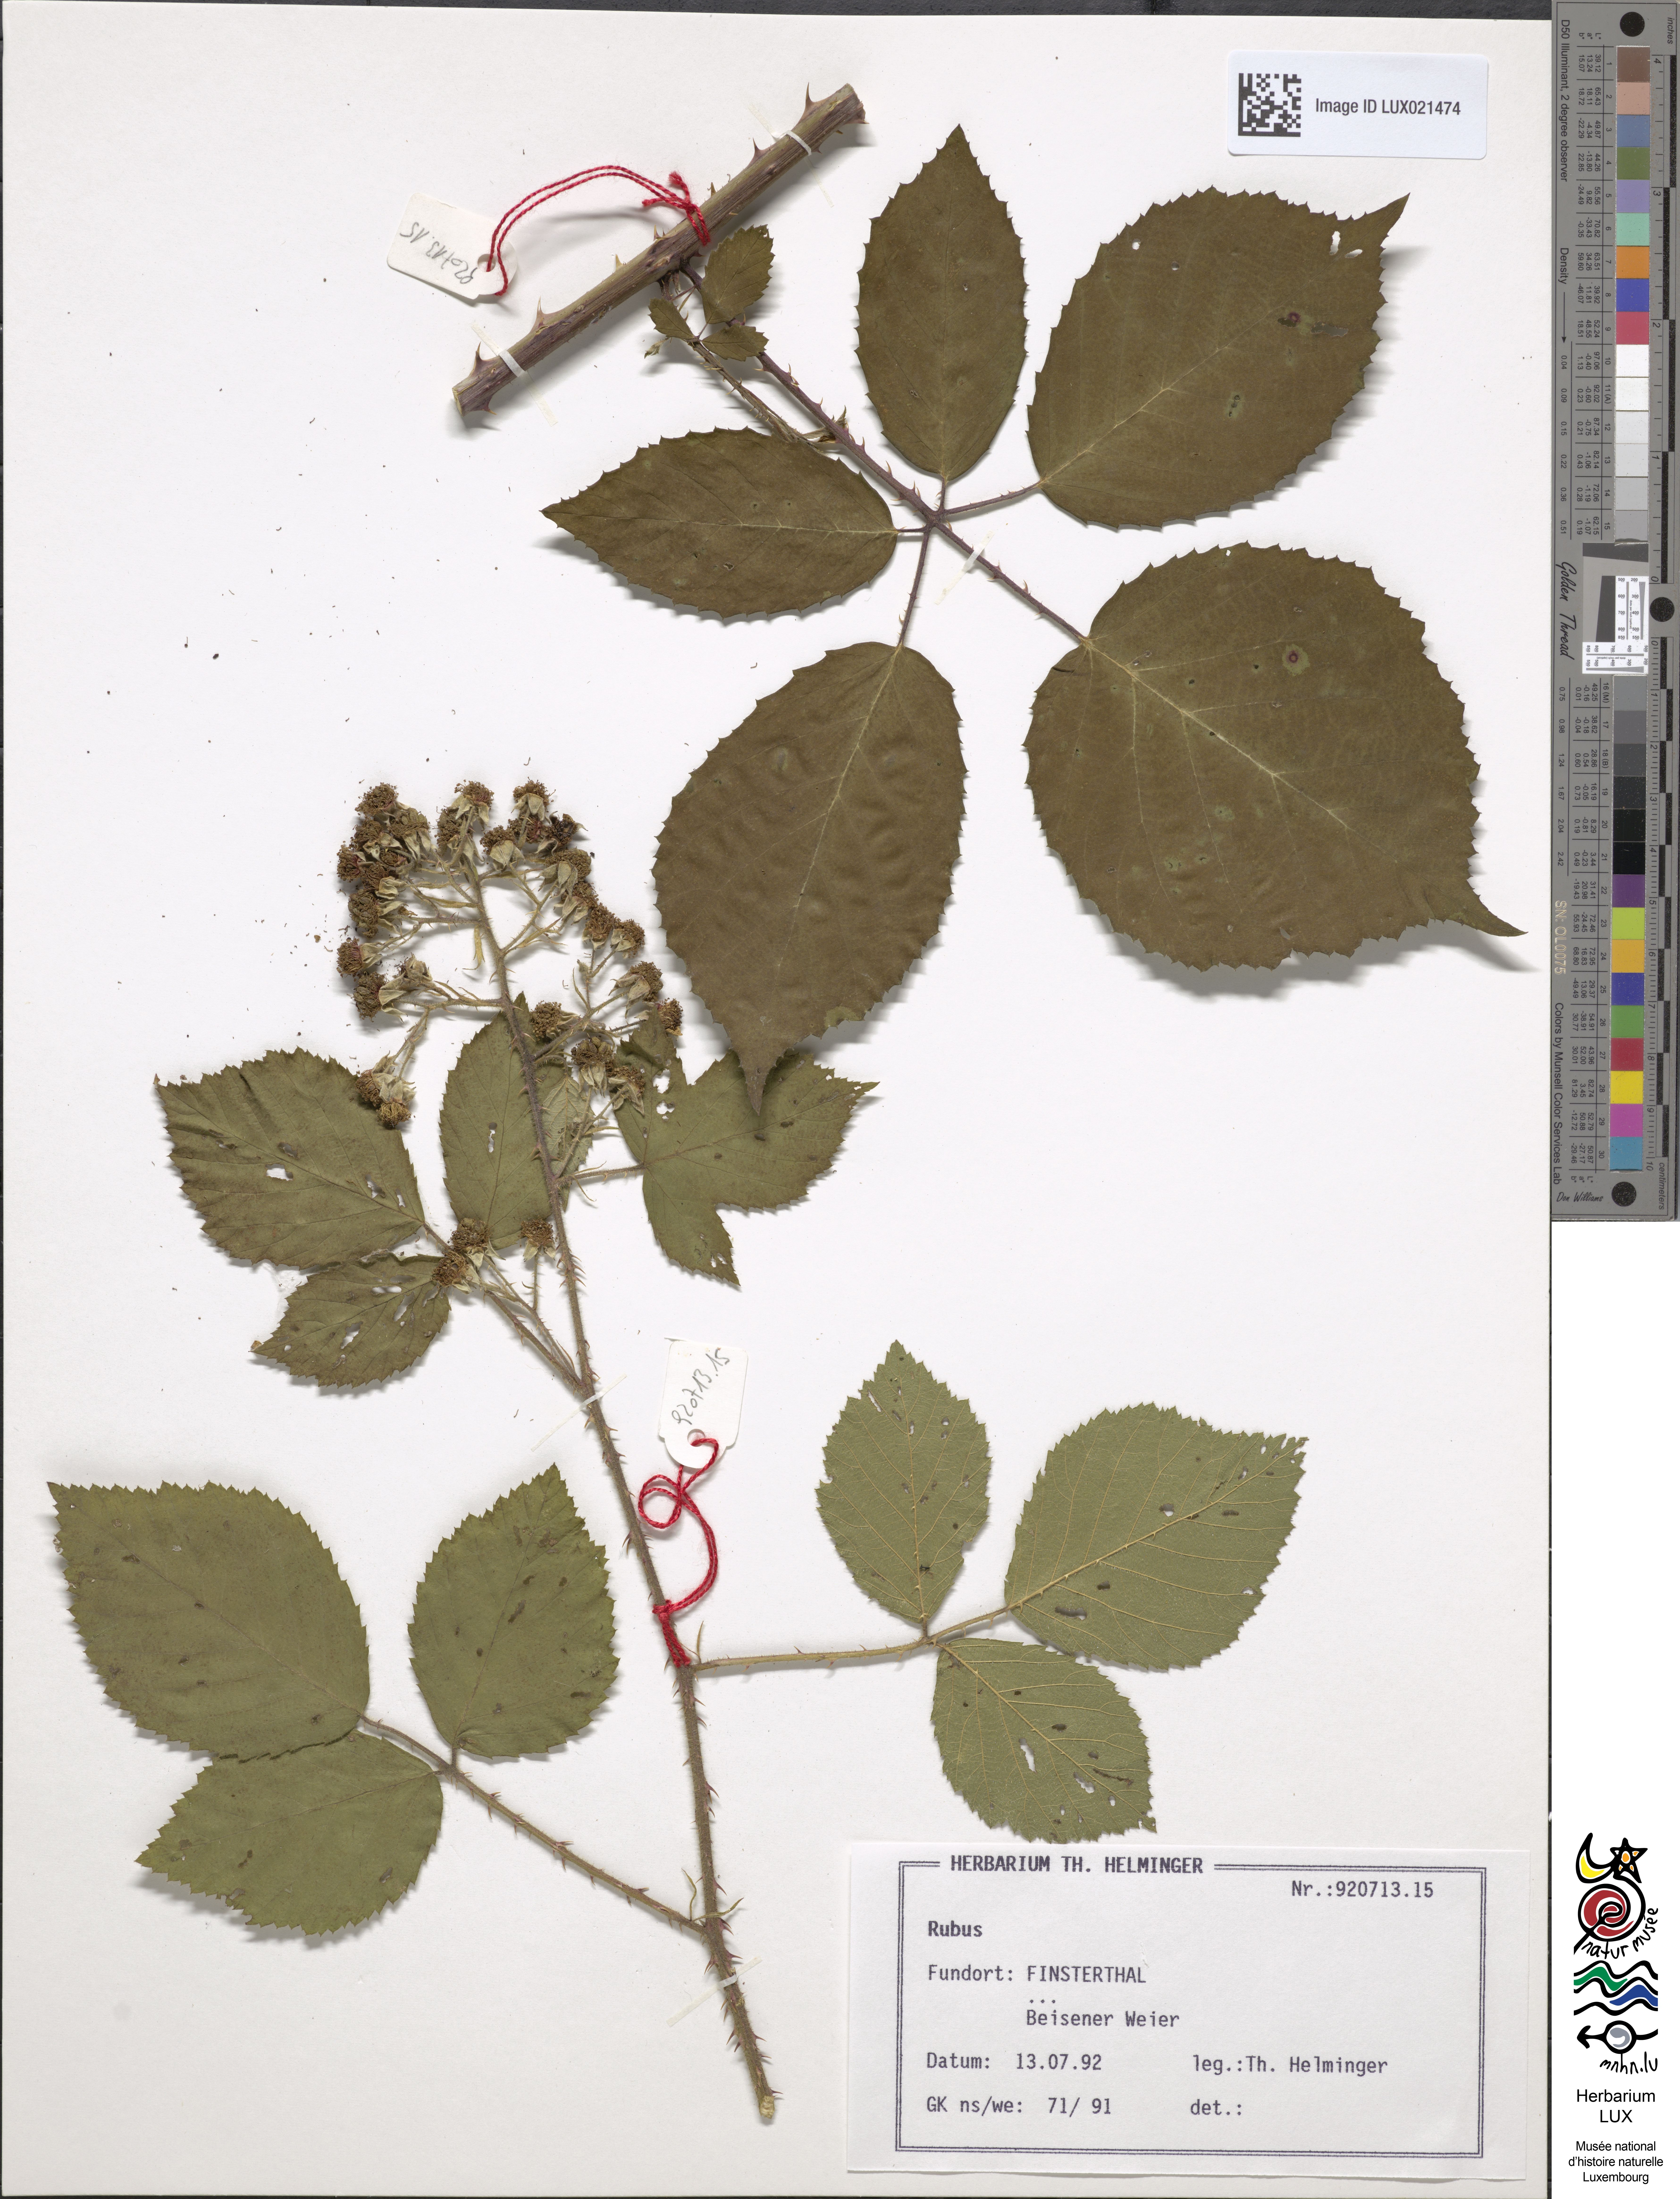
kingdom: Plantae
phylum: Tracheophyta
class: Magnoliopsida
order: Rosales
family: Rosaceae
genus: Rubus
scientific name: Rubus
